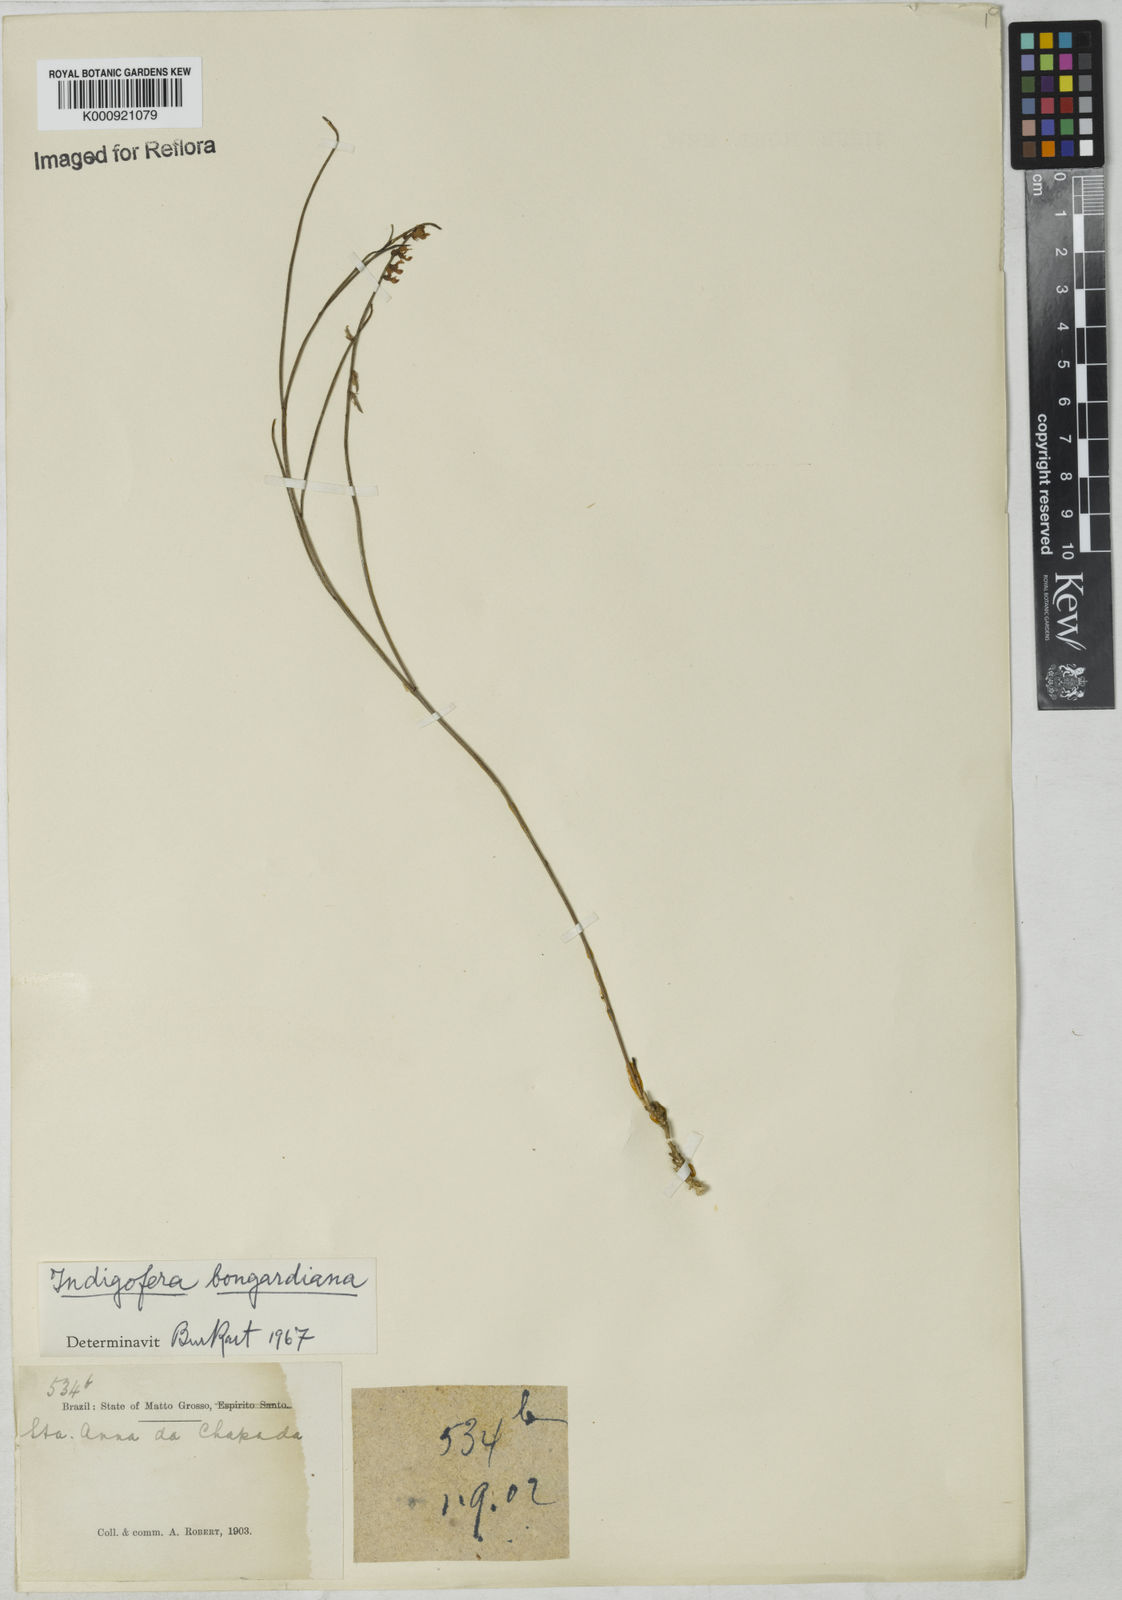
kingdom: Plantae
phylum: Tracheophyta
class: Magnoliopsida
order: Fabales
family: Fabaceae
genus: Indigofera
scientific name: Indigofera bongardiana
